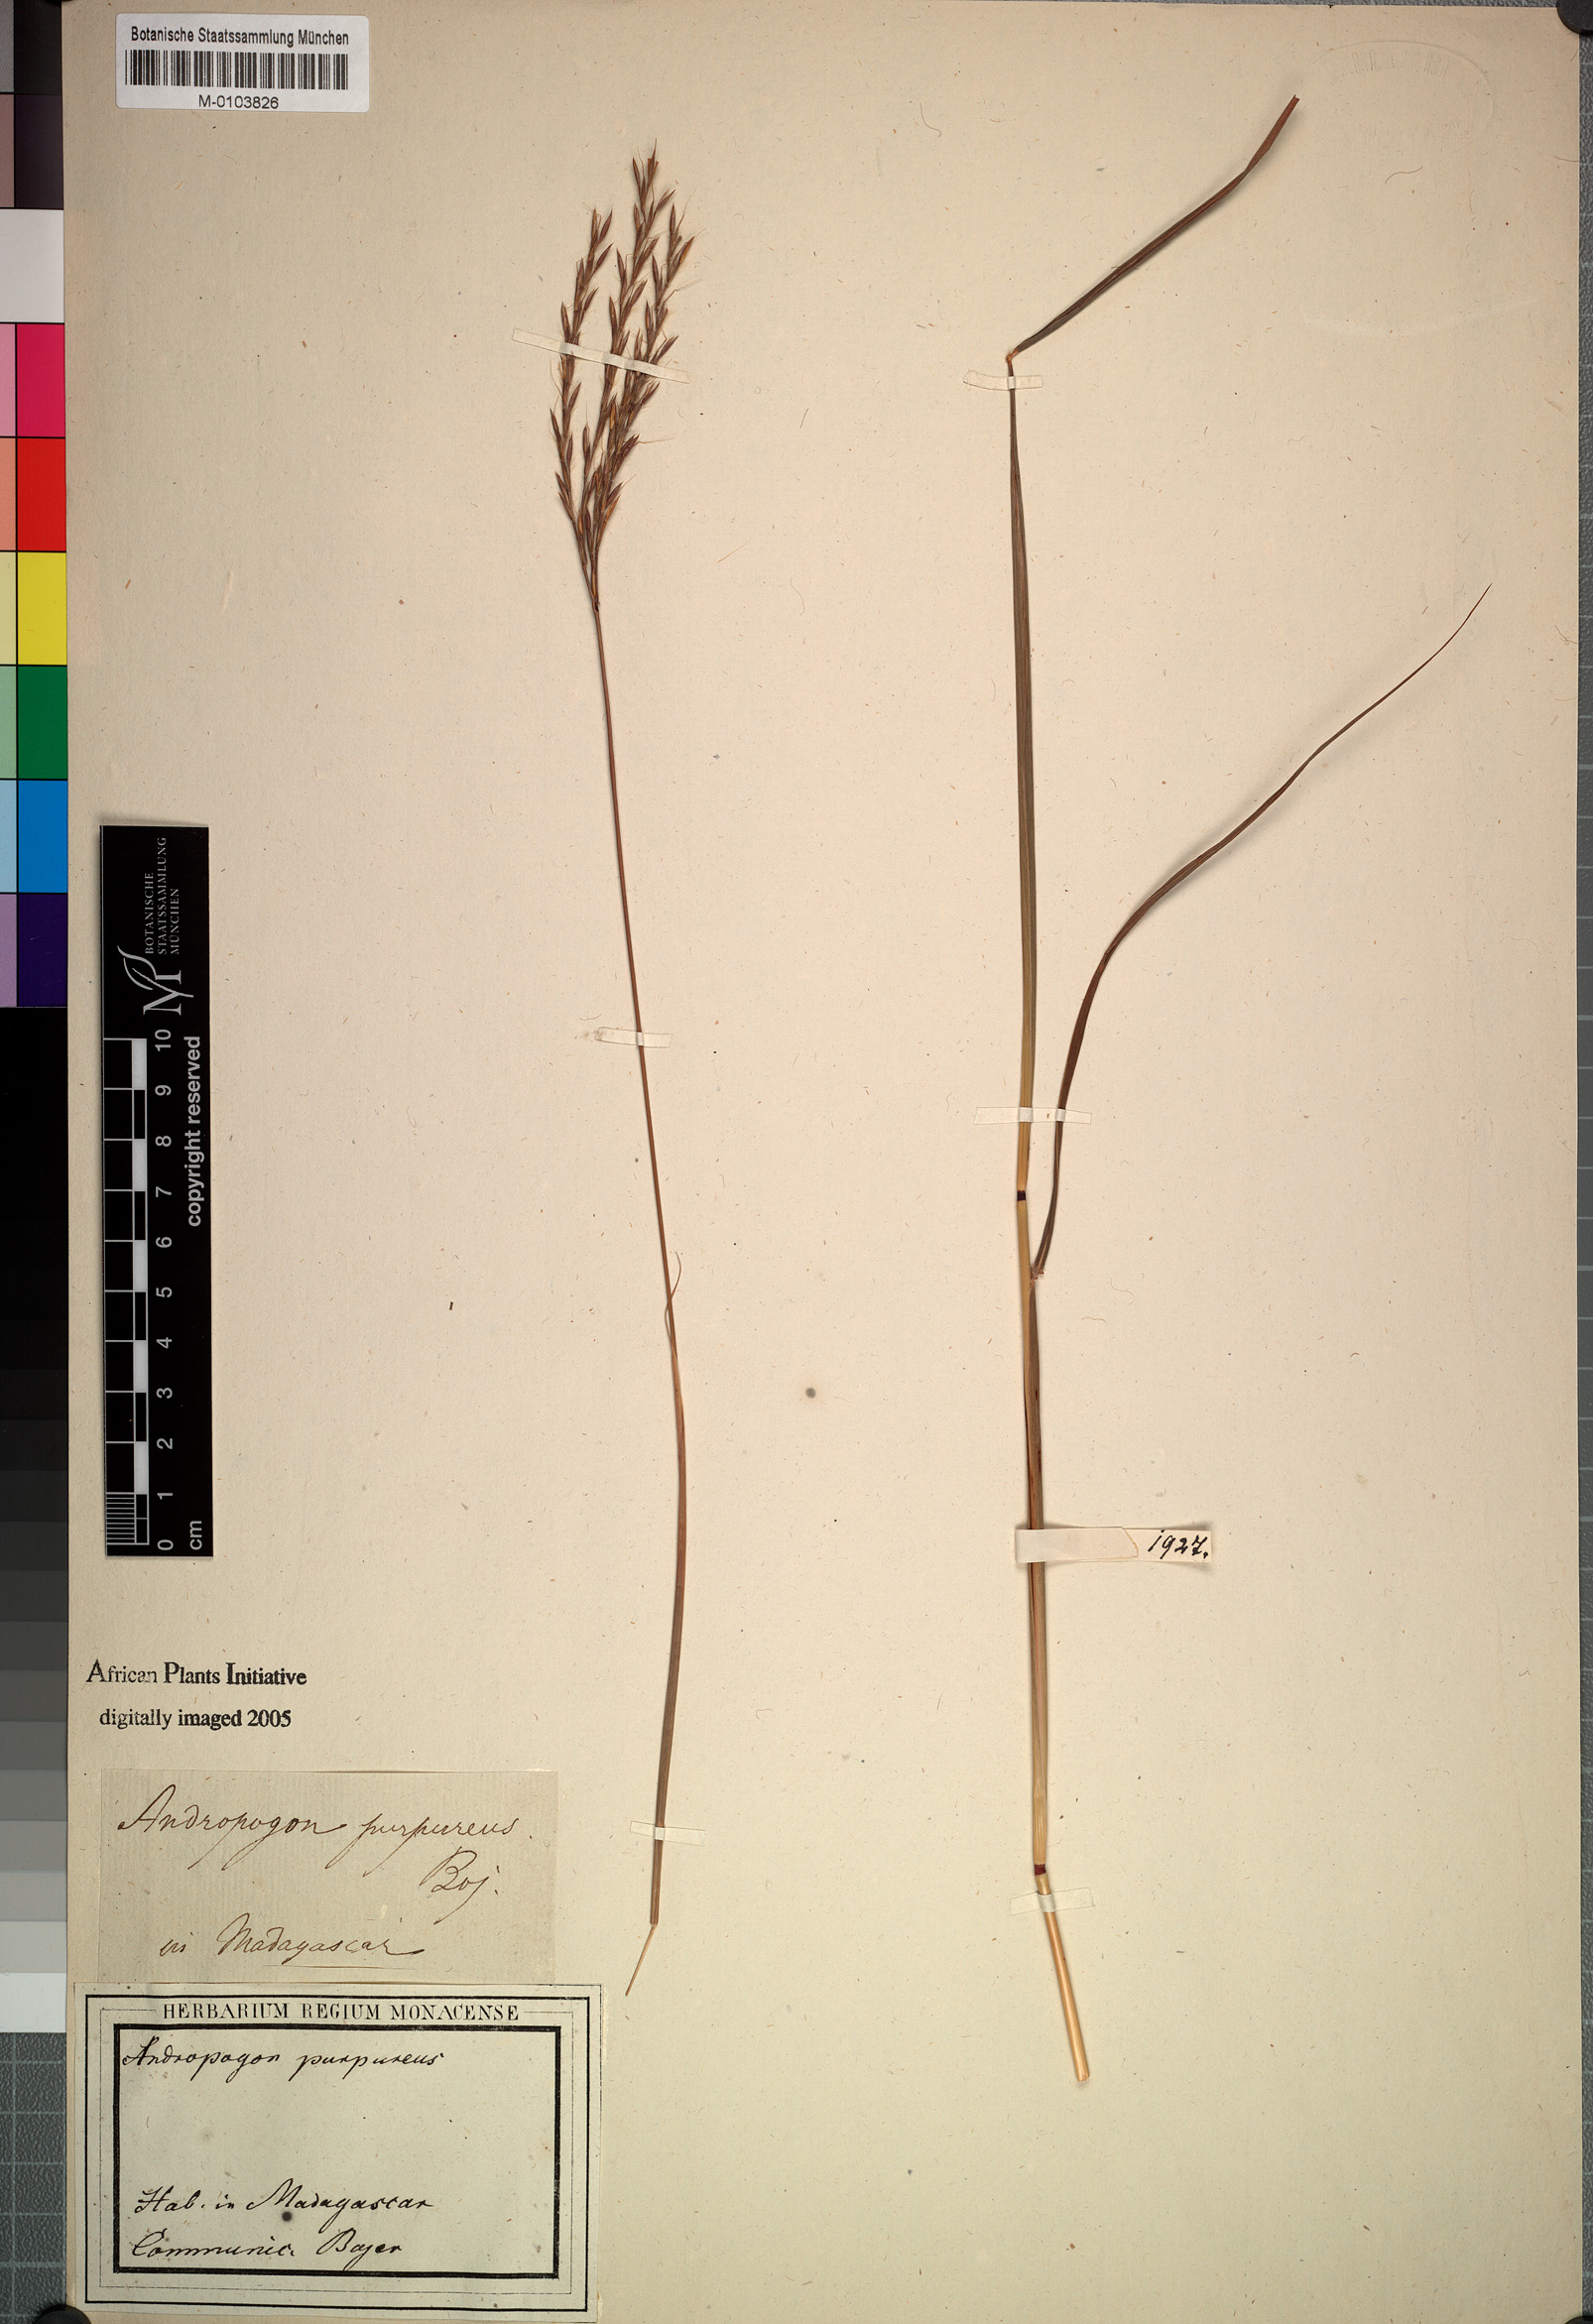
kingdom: Plantae
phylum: Tracheophyta
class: Liliopsida
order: Poales
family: Poaceae
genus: Andropogon
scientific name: Andropogon mannii
